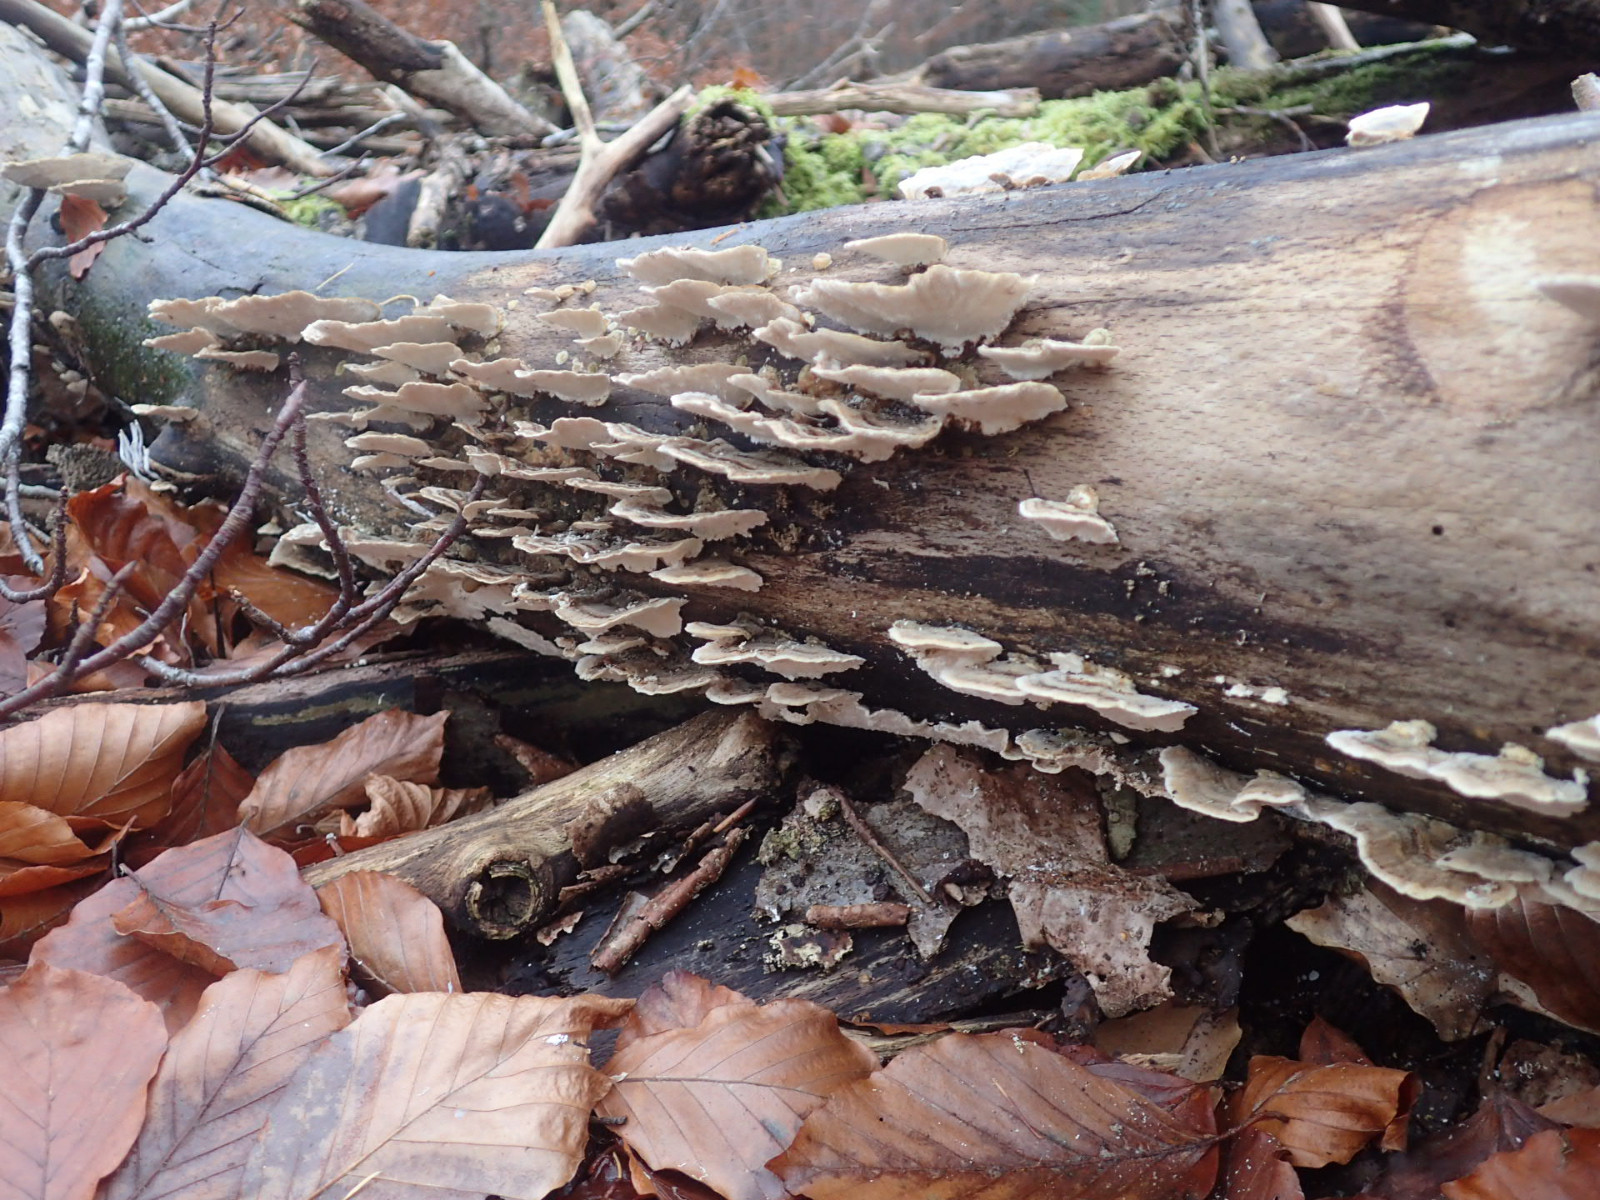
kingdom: Fungi
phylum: Basidiomycota
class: Agaricomycetes
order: Polyporales
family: Polyporaceae
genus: Trametes
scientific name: Trametes versicolor
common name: broget læderporesvamp
